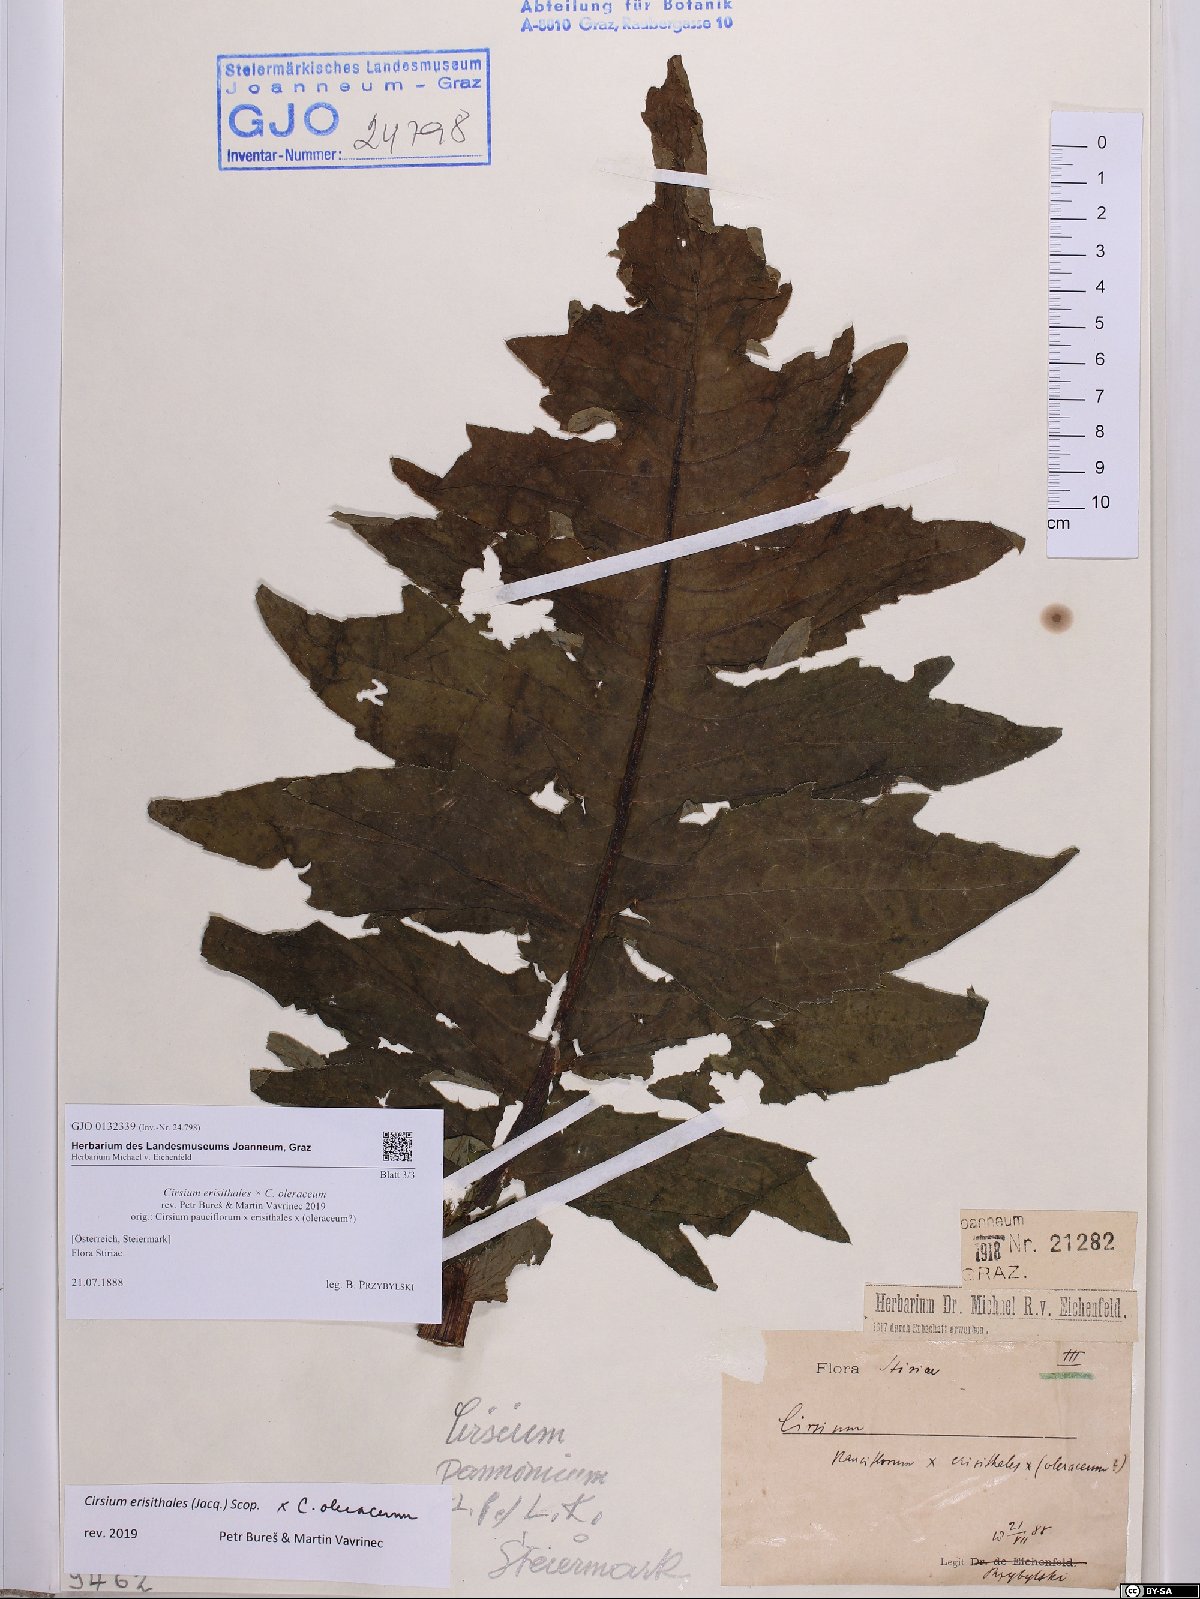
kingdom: Plantae
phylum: Tracheophyta
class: Magnoliopsida
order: Asterales
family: Asteraceae
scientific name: Asteraceae
